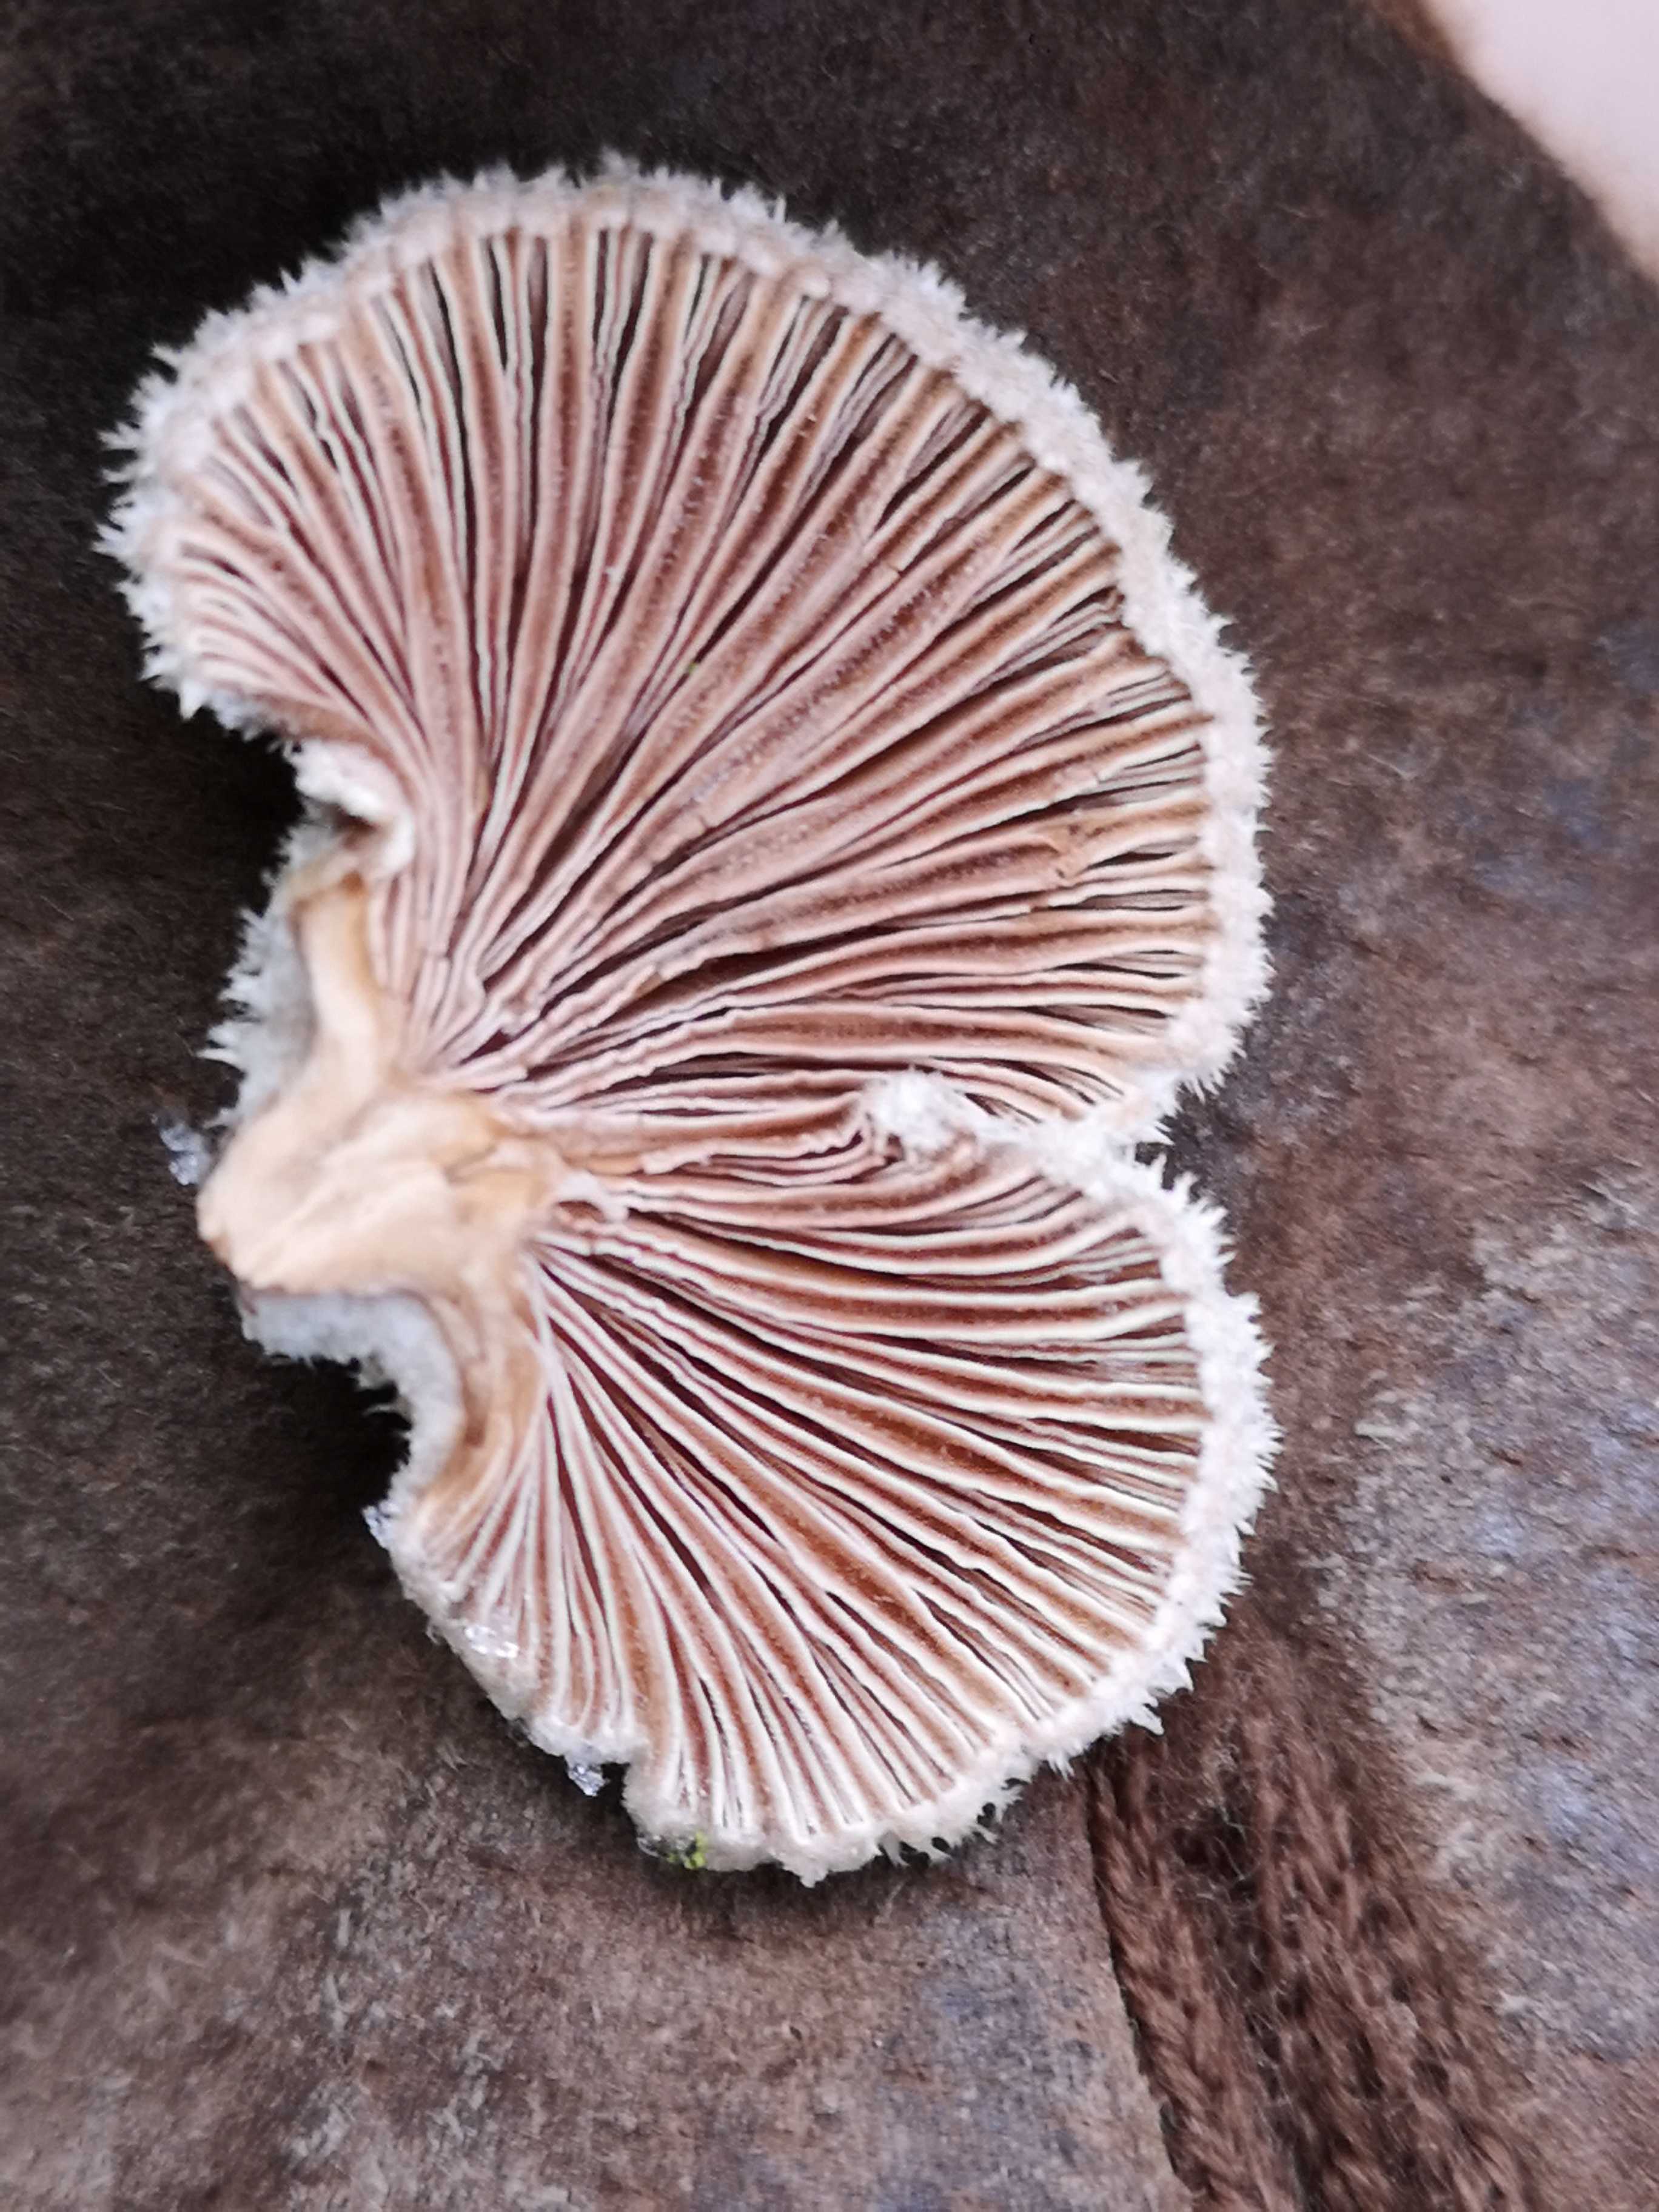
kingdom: Fungi
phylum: Basidiomycota
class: Agaricomycetes
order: Agaricales
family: Schizophyllaceae
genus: Schizophyllum
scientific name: Schizophyllum commune
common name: kløvblad
